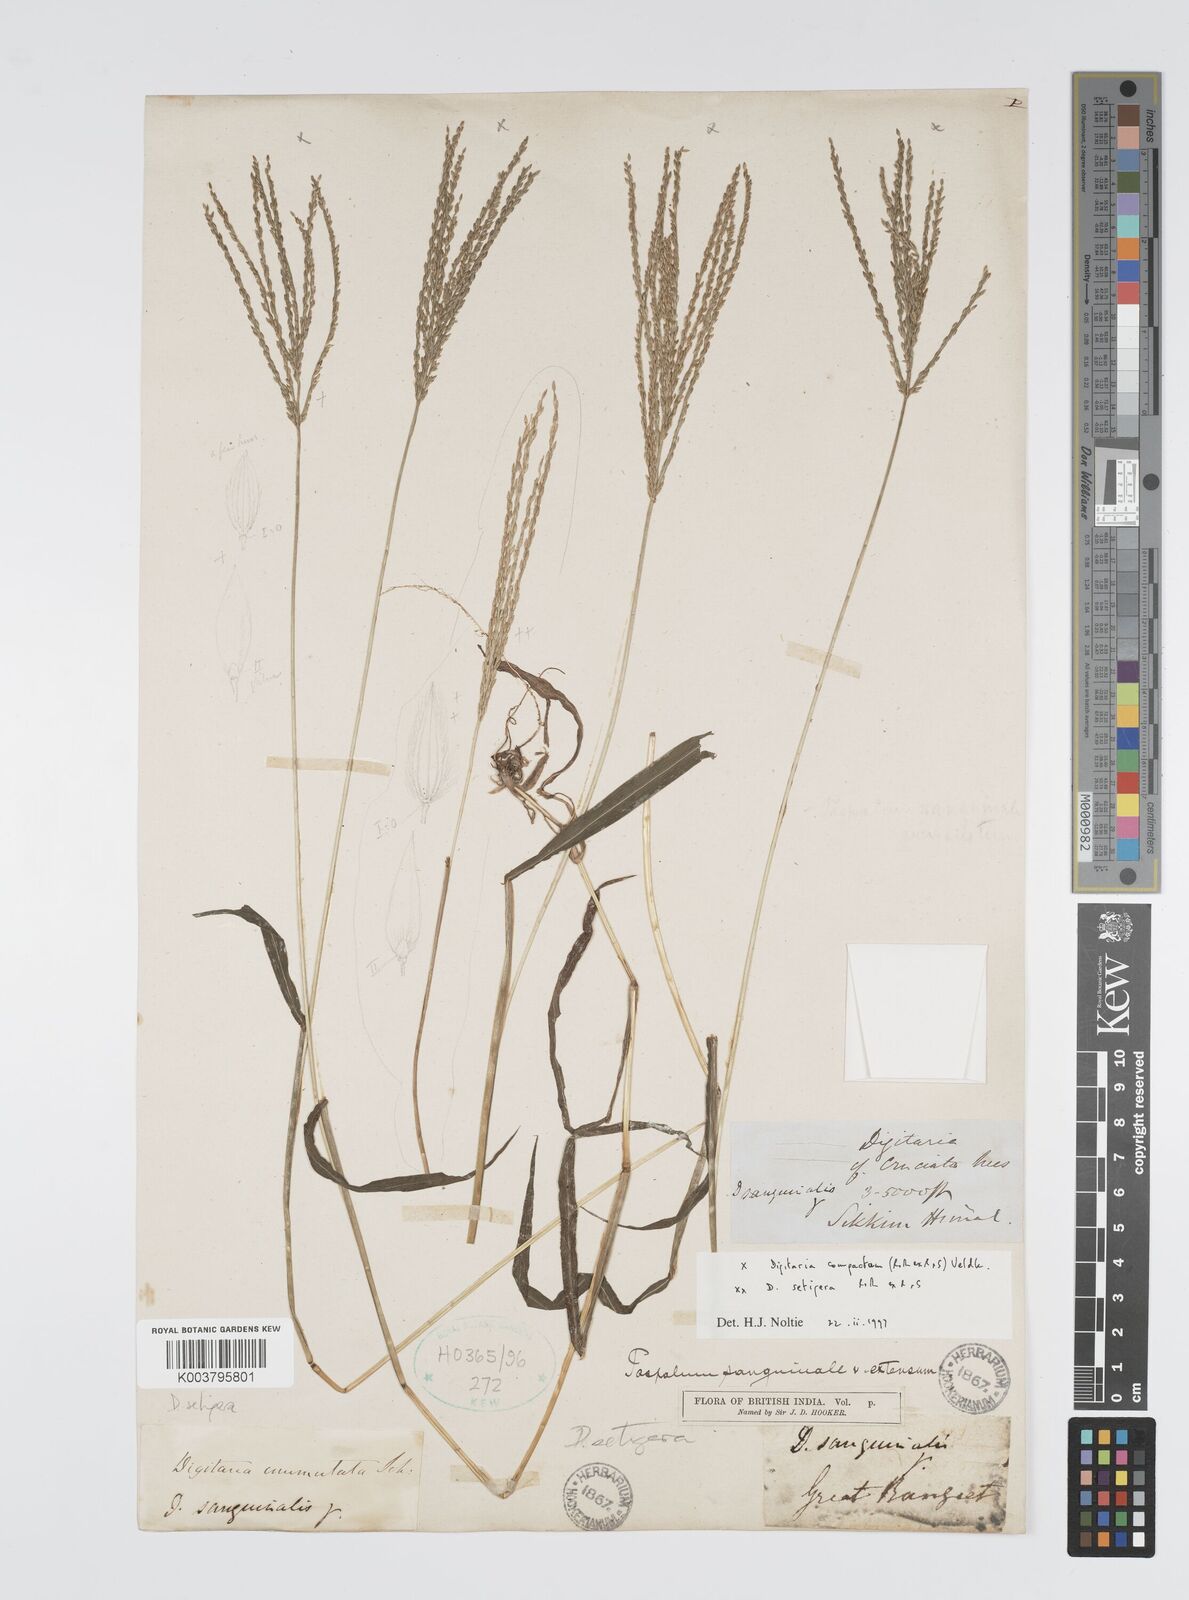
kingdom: Plantae
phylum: Tracheophyta
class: Liliopsida
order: Poales
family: Poaceae
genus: Digitaria
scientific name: Digitaria compacta
